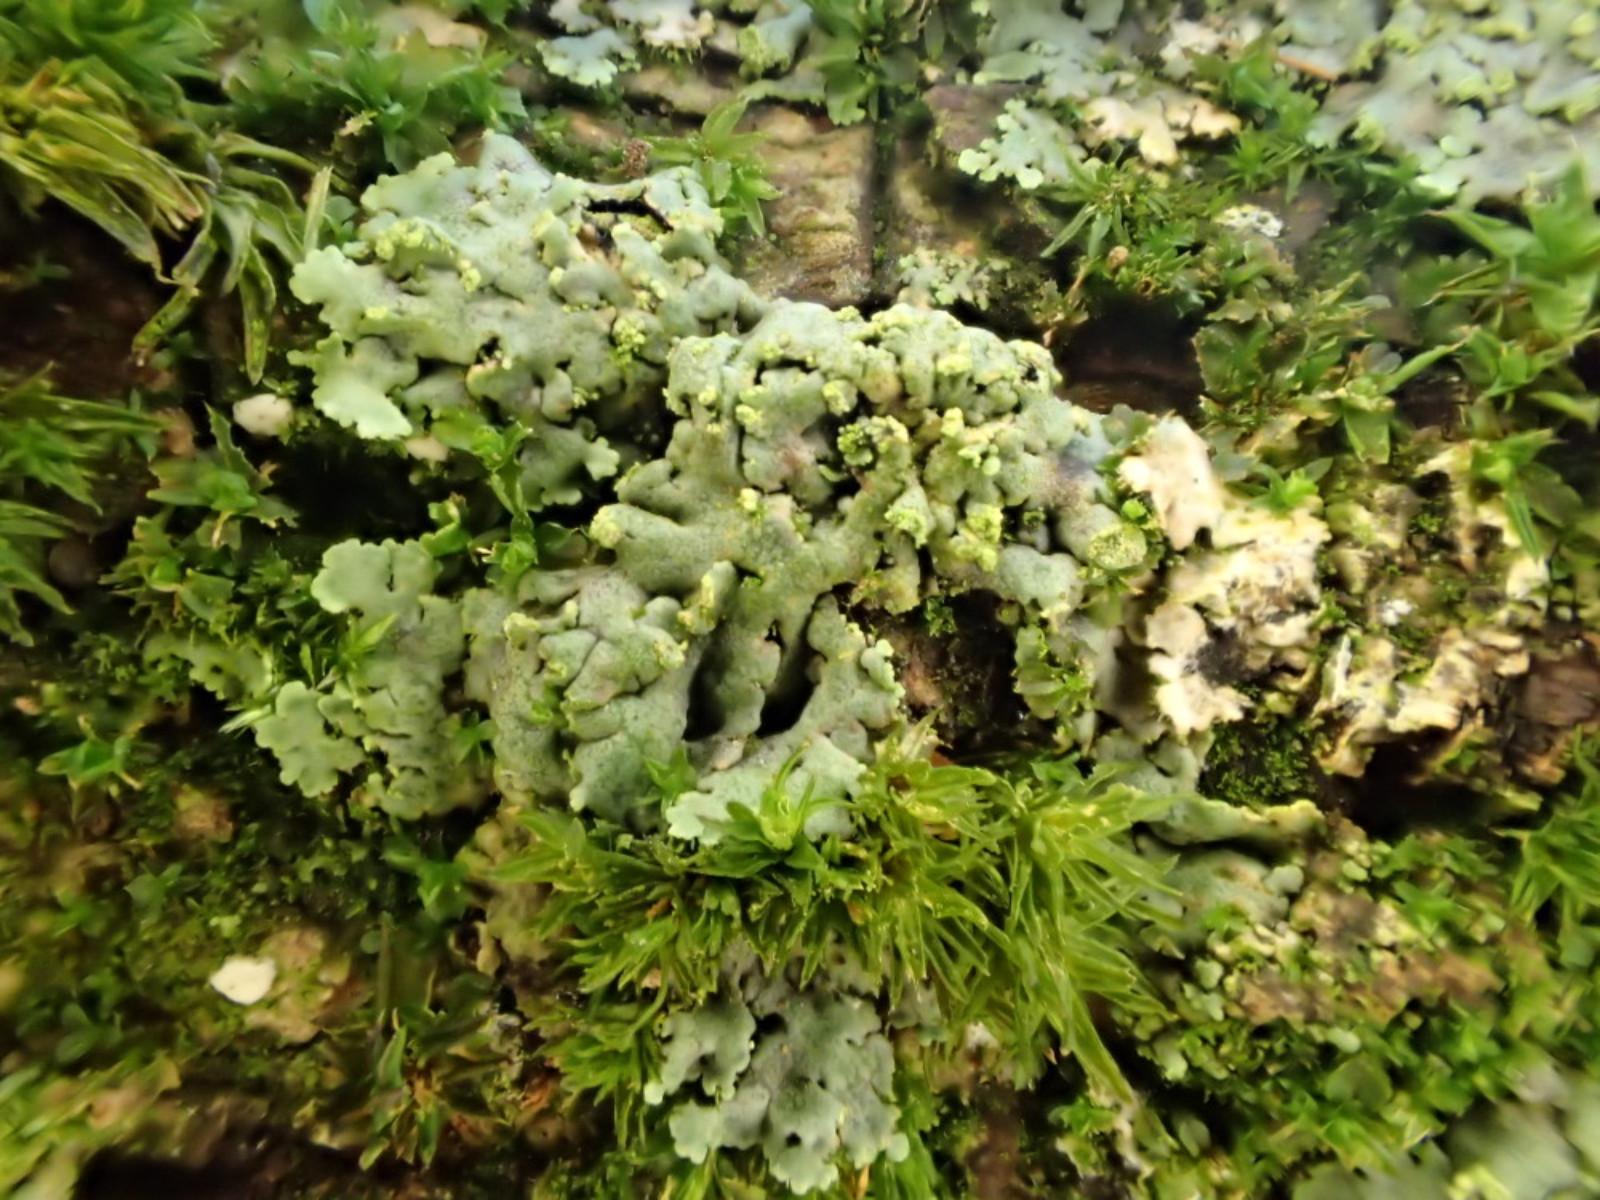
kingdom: Fungi
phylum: Ascomycota
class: Lecanoromycetes
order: Caliciales
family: Physciaceae
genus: Phaeophyscia
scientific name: Phaeophyscia orbicularis
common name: grågrøn rosetlav
